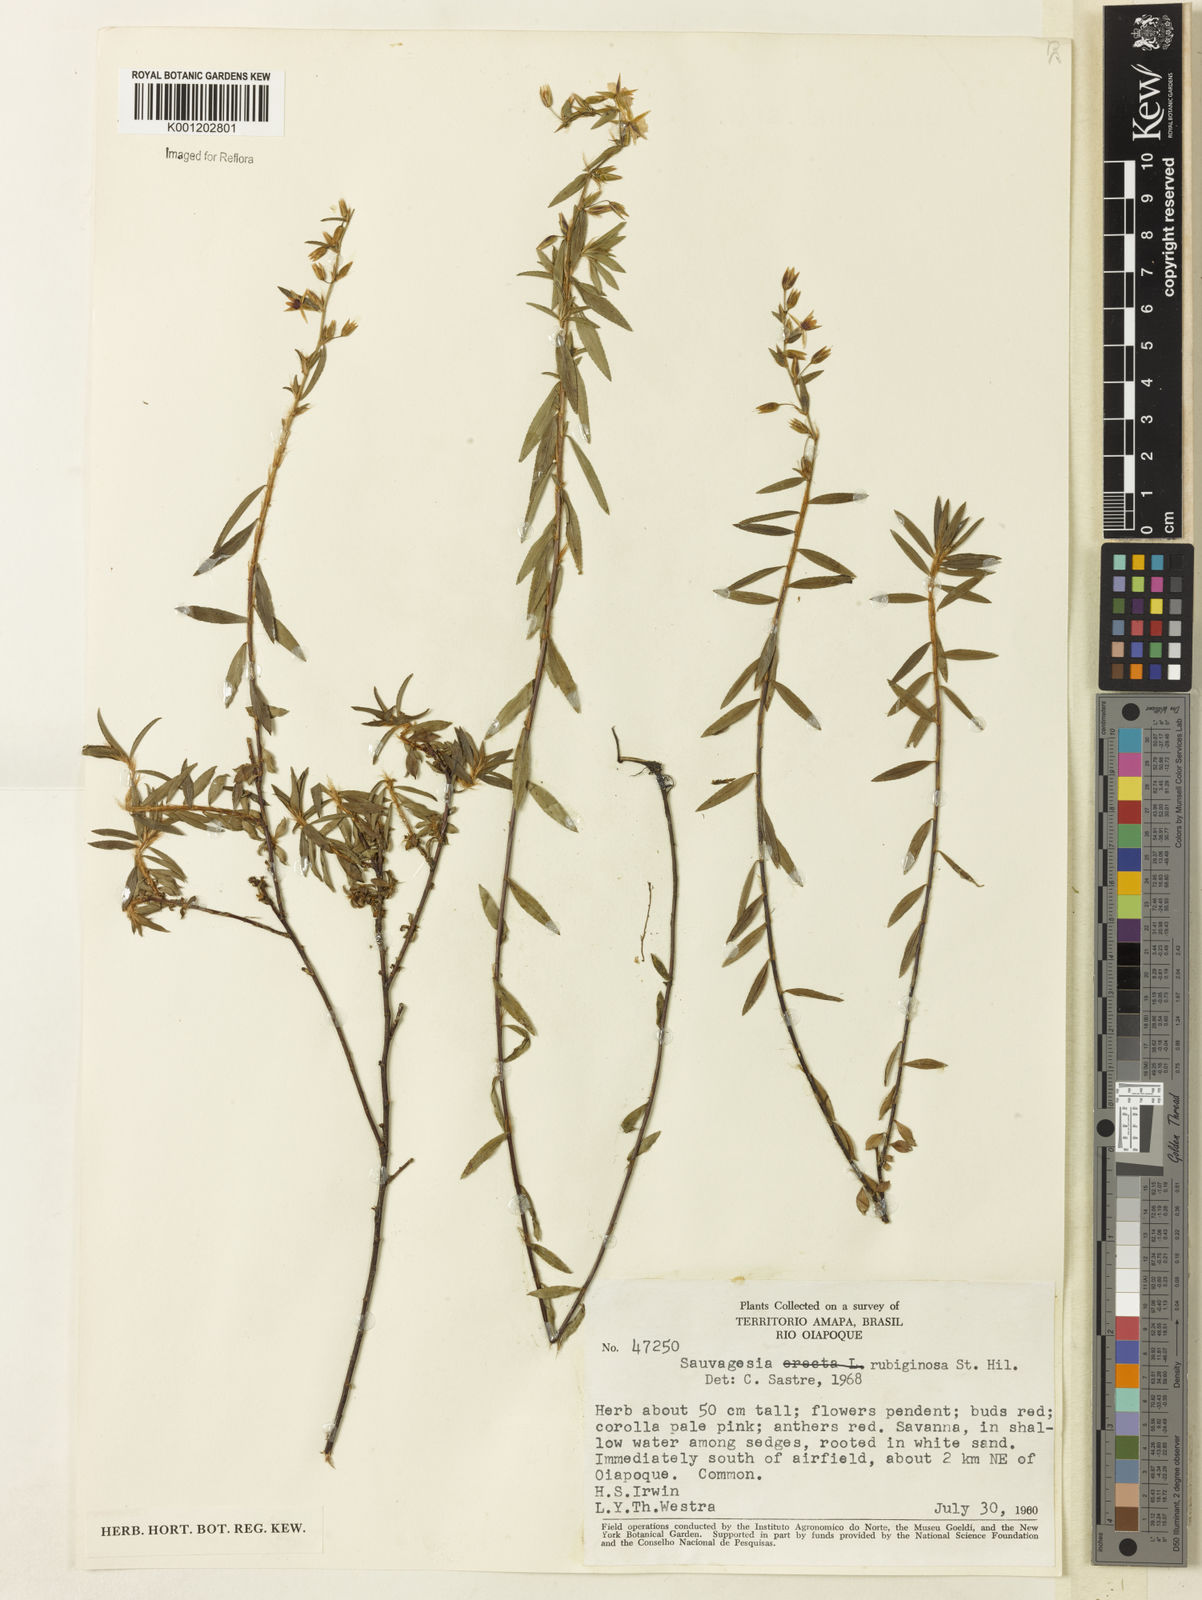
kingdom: Plantae
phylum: Tracheophyta
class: Magnoliopsida
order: Malpighiales
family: Ochnaceae
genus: Sauvagesia
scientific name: Sauvagesia rubiginosa
